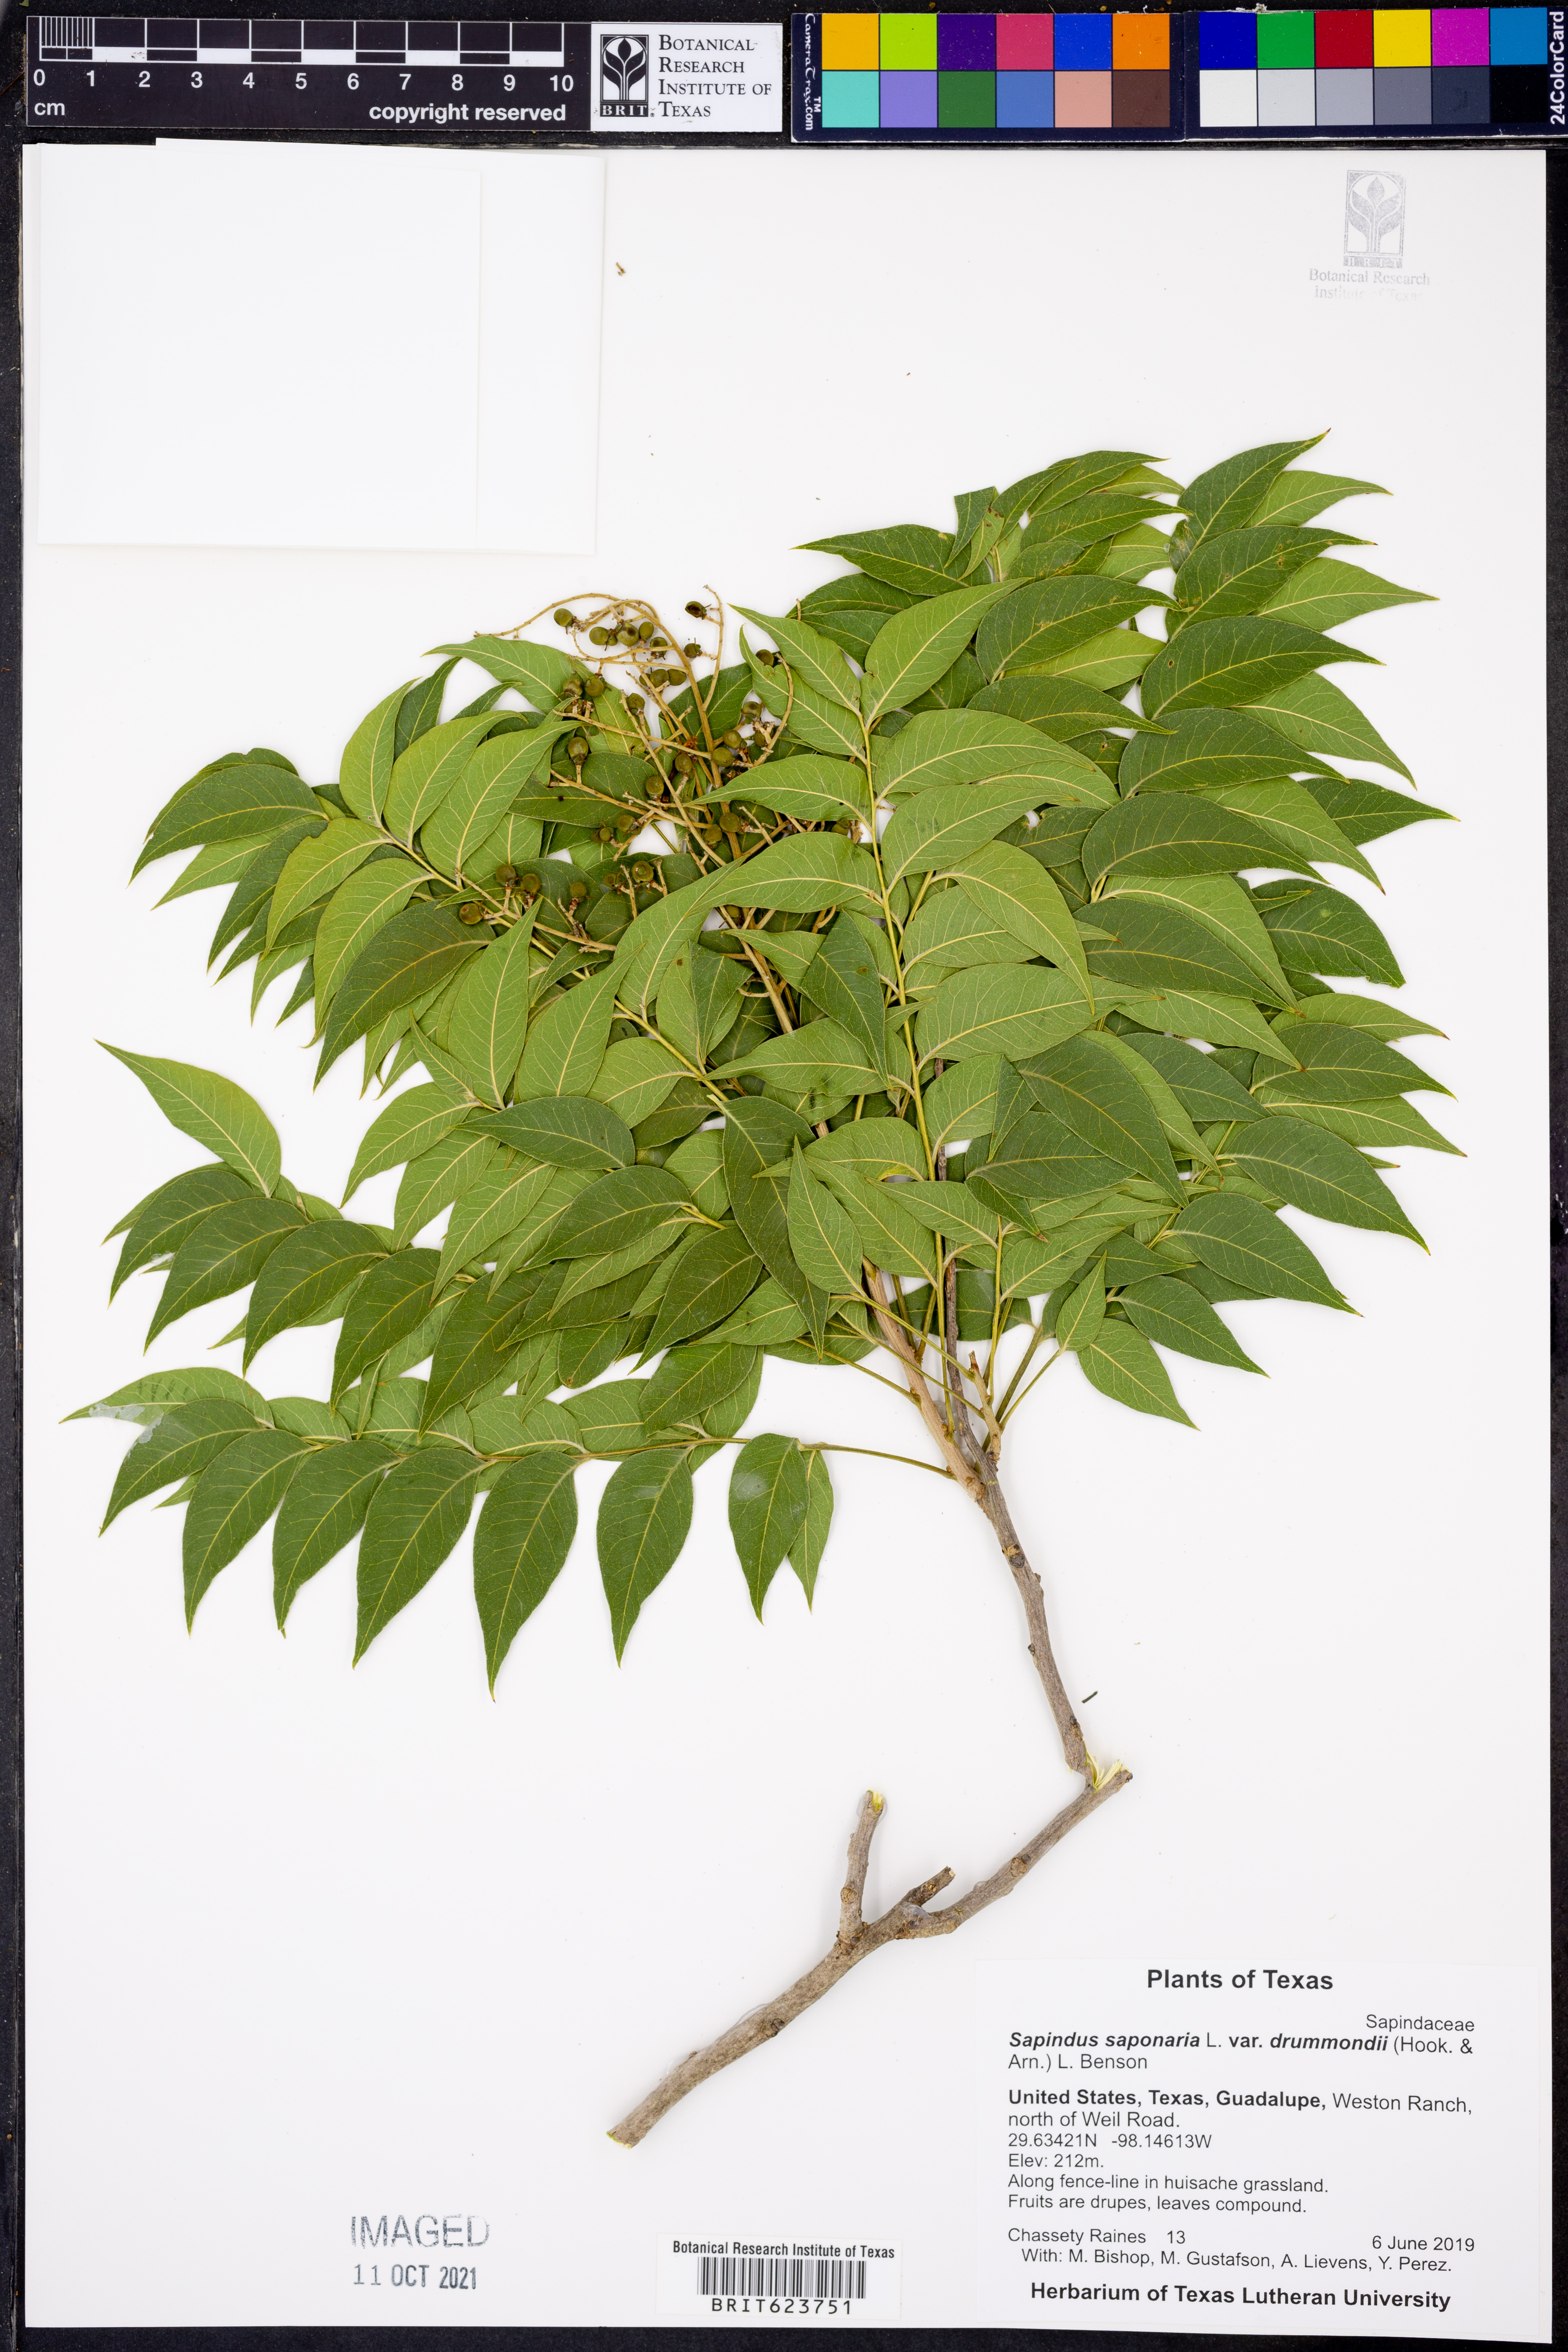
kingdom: Plantae
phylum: Tracheophyta
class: Magnoliopsida
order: Sapindales
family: Sapindaceae
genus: Sapindus
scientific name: Sapindus drummondii
